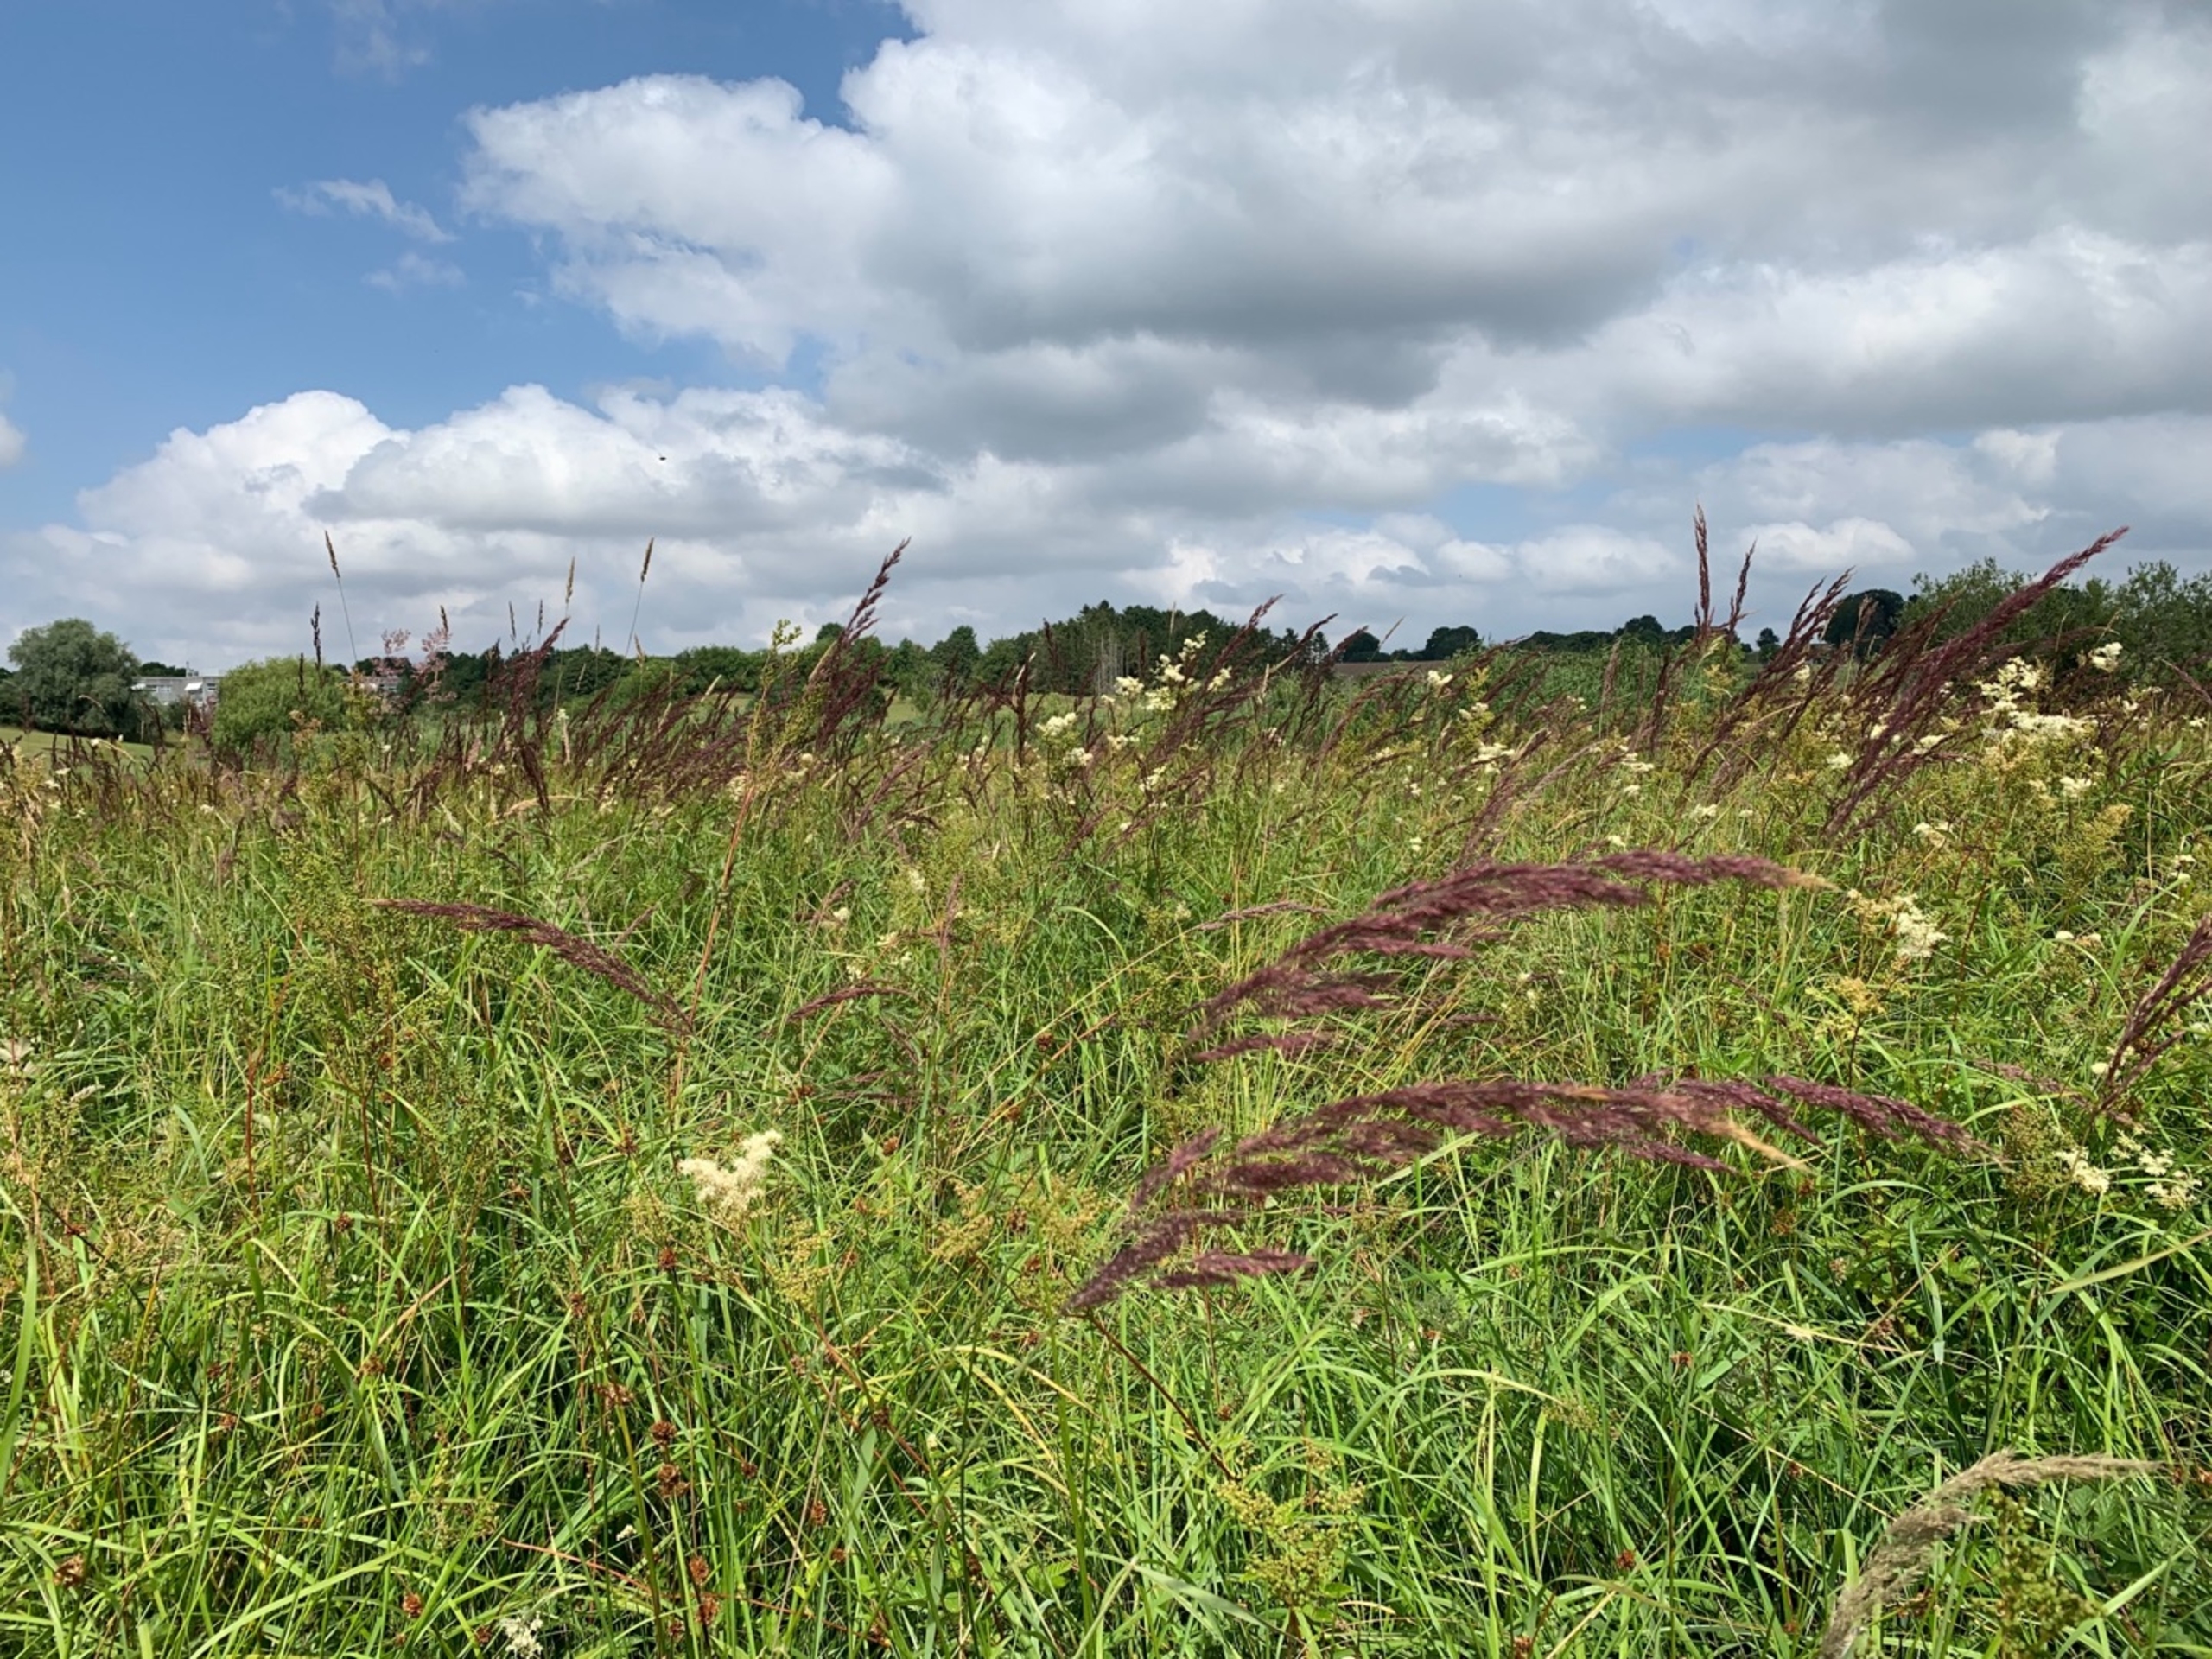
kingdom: Plantae
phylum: Tracheophyta
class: Liliopsida
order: Poales
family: Poaceae
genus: Calamagrostis
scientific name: Calamagrostis canescens
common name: Eng-rørhvene
